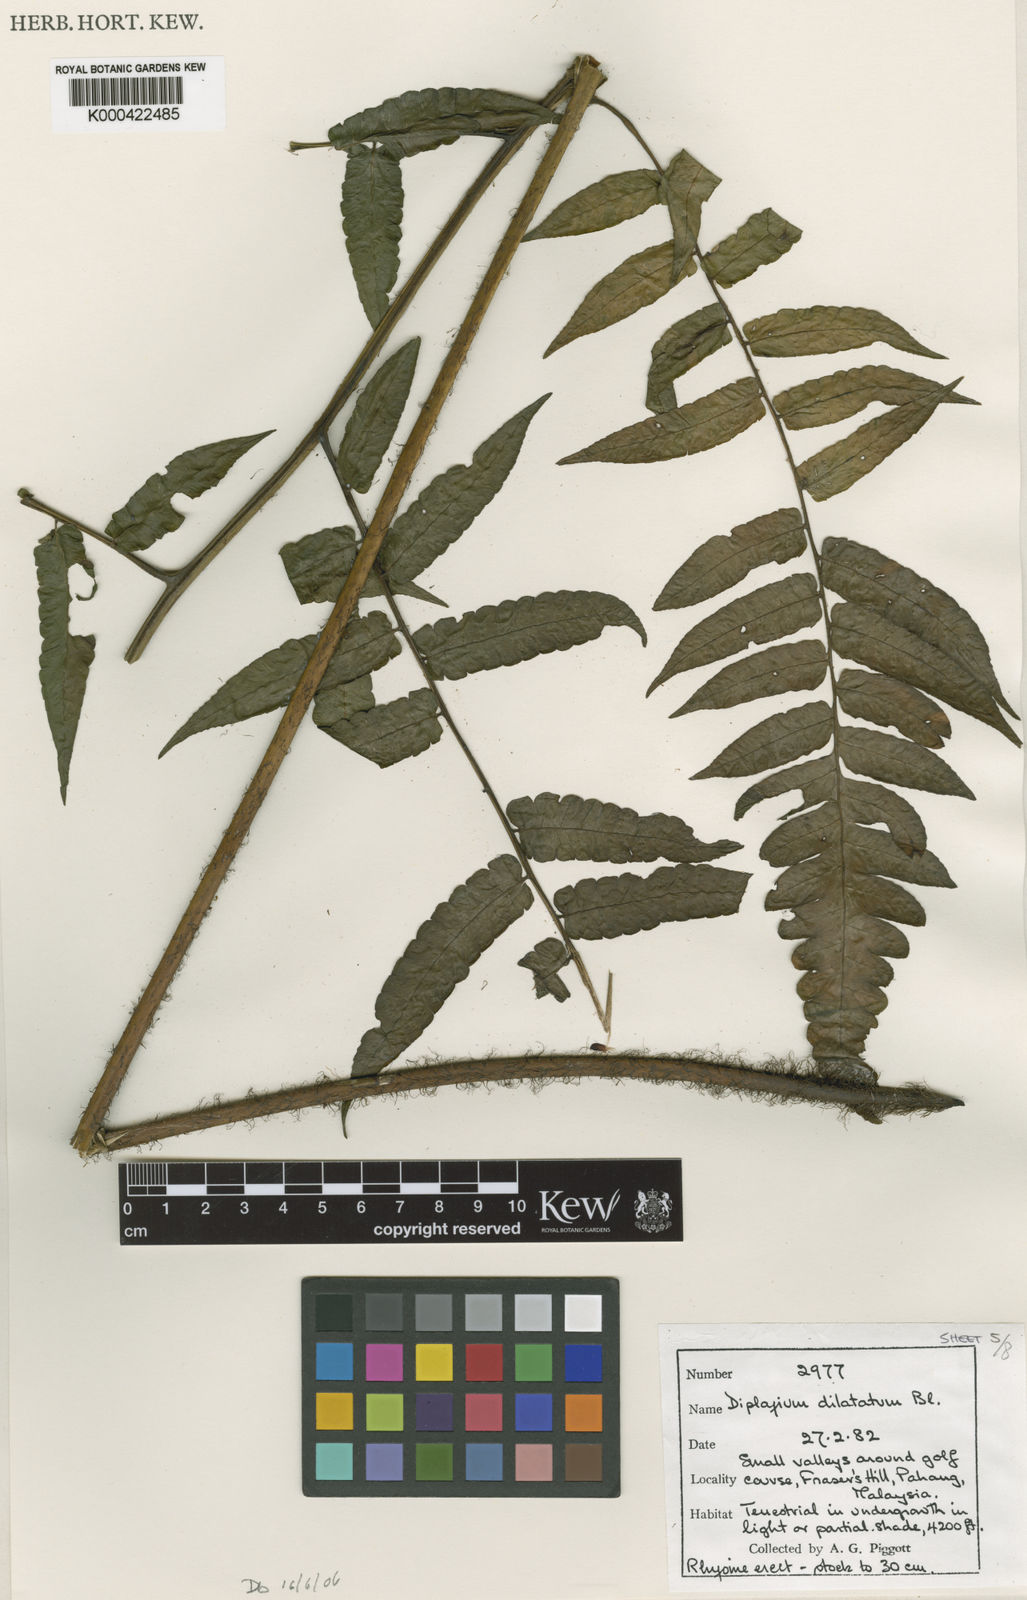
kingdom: Plantae
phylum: Tracheophyta
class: Polypodiopsida
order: Polypodiales
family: Athyriaceae
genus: Diplazium
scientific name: Diplazium dilatatum
